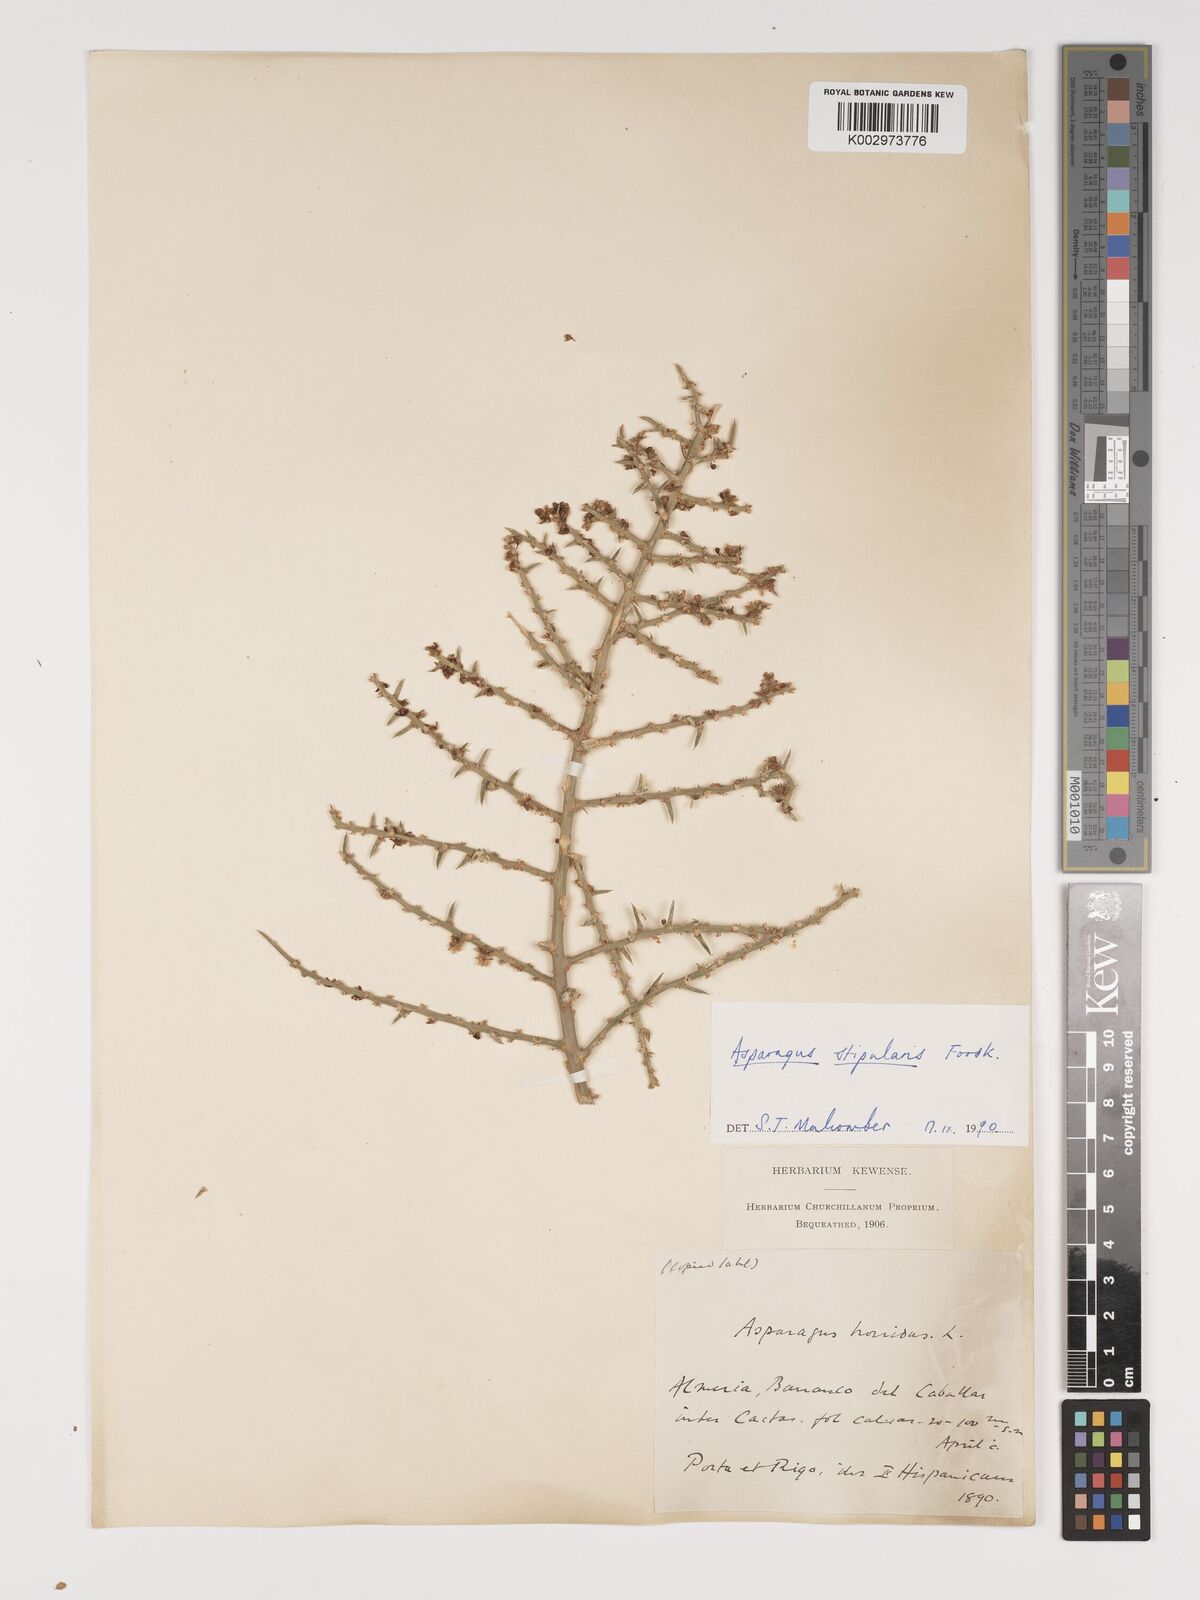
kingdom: Plantae
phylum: Tracheophyta
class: Liliopsida
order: Asparagales
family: Asparagaceae
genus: Asparagus
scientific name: Asparagus horridus
